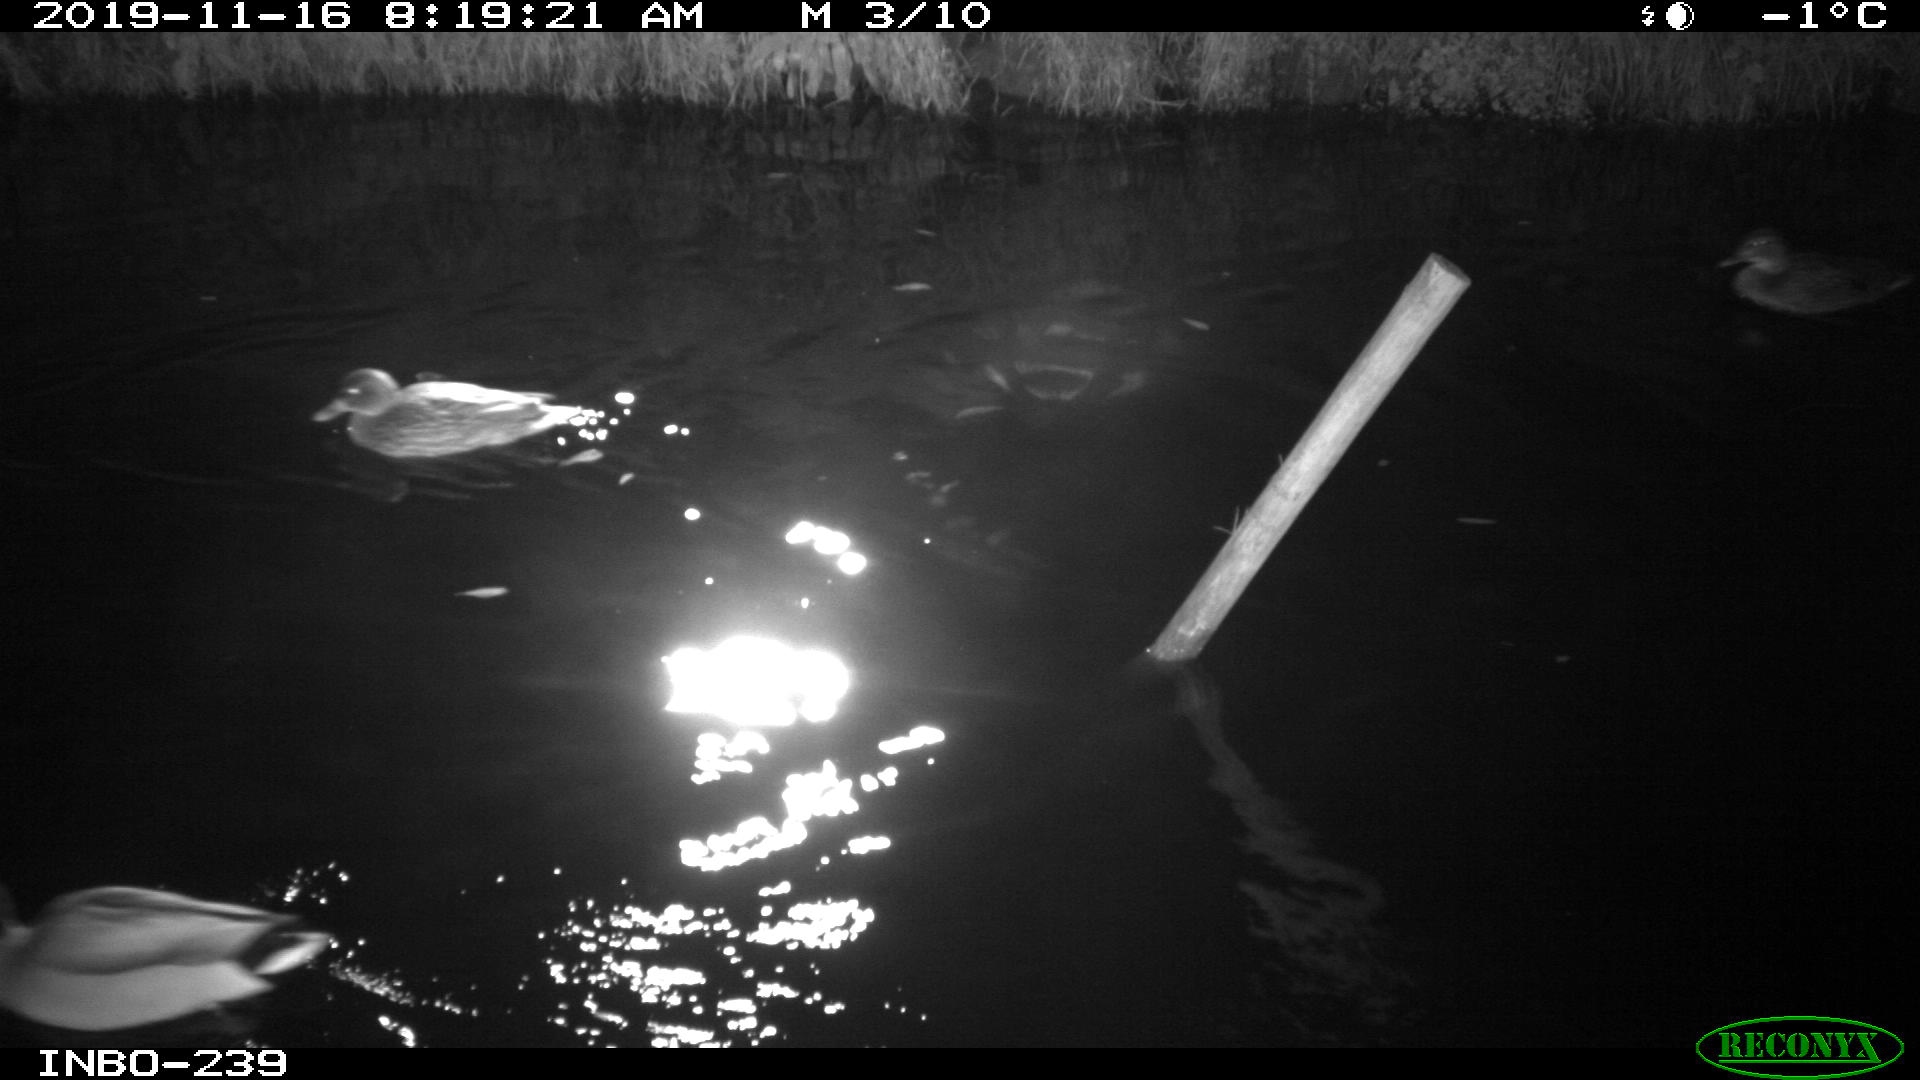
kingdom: Animalia
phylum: Chordata
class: Aves
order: Anseriformes
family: Anatidae
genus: Anas
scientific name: Anas platyrhynchos
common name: Mallard
